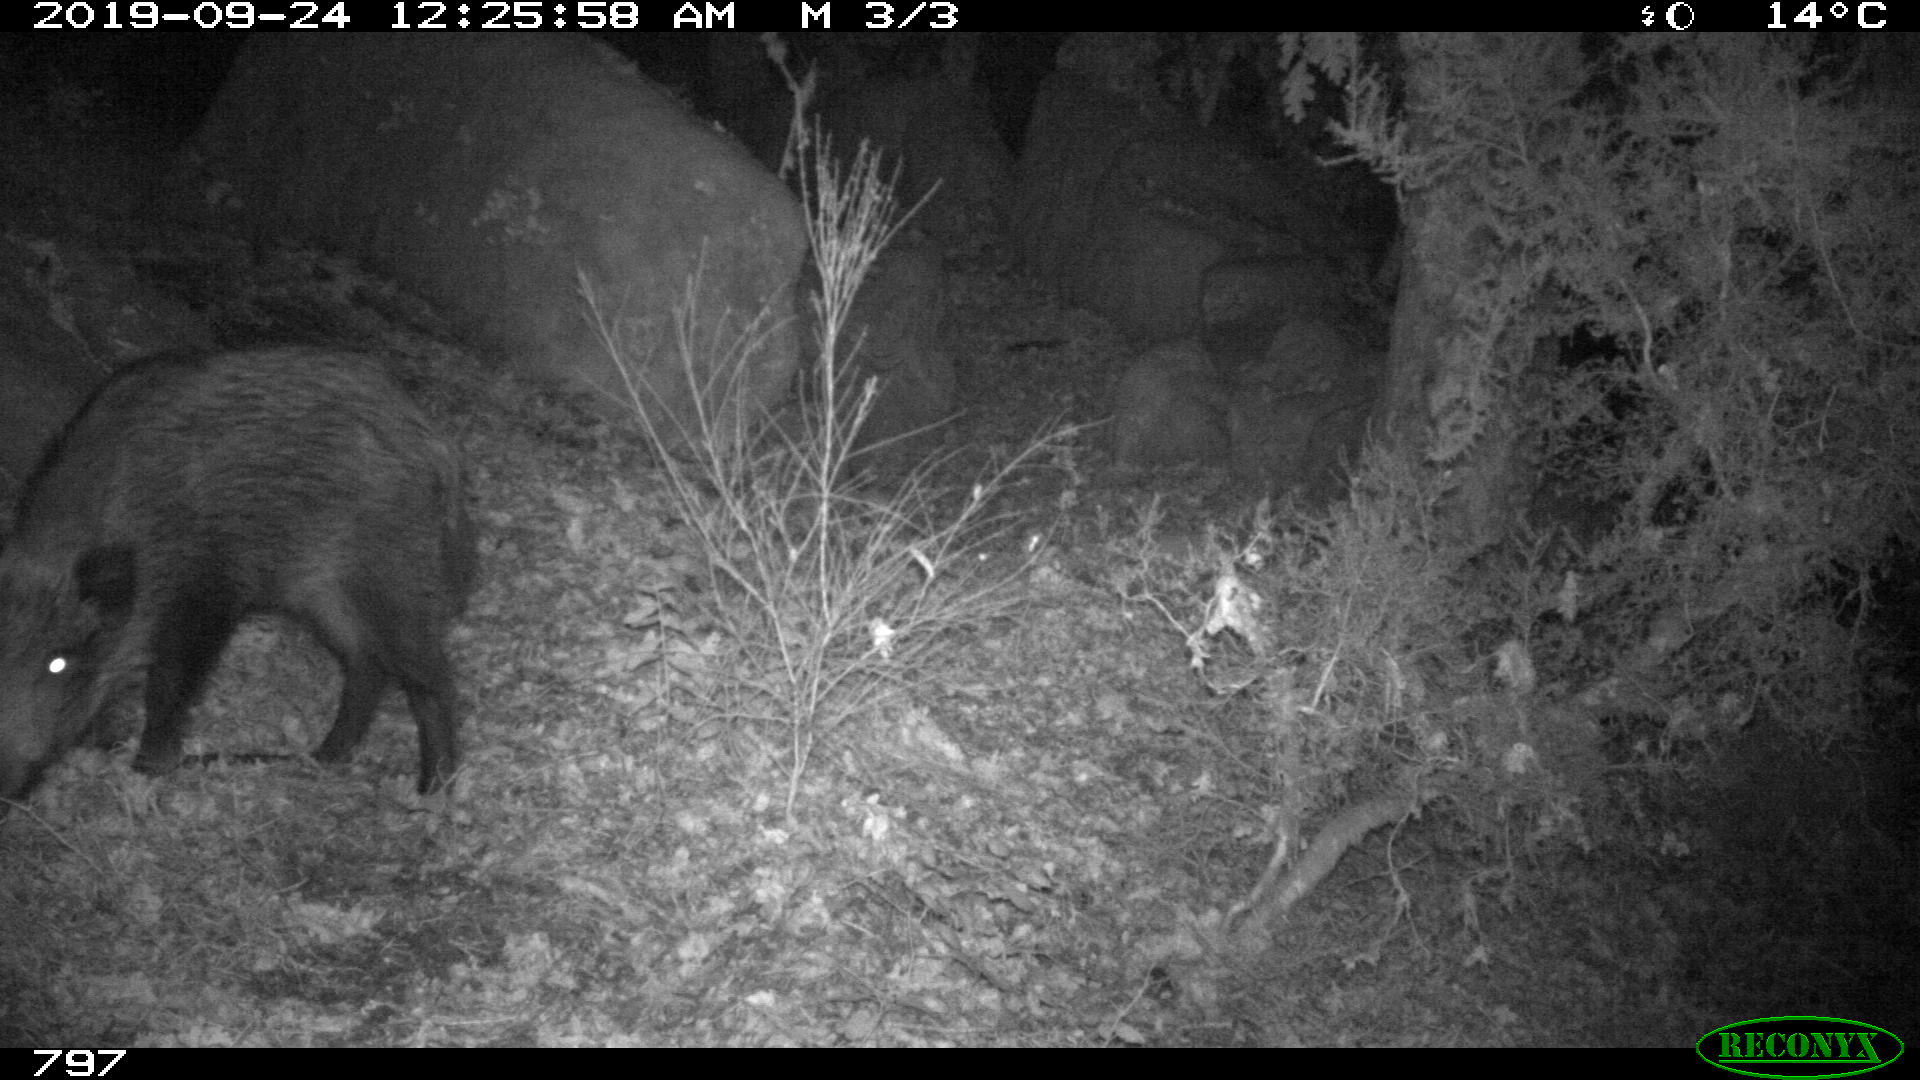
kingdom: Animalia
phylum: Chordata
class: Mammalia
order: Artiodactyla
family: Suidae
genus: Sus
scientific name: Sus scrofa
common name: Wild boar
